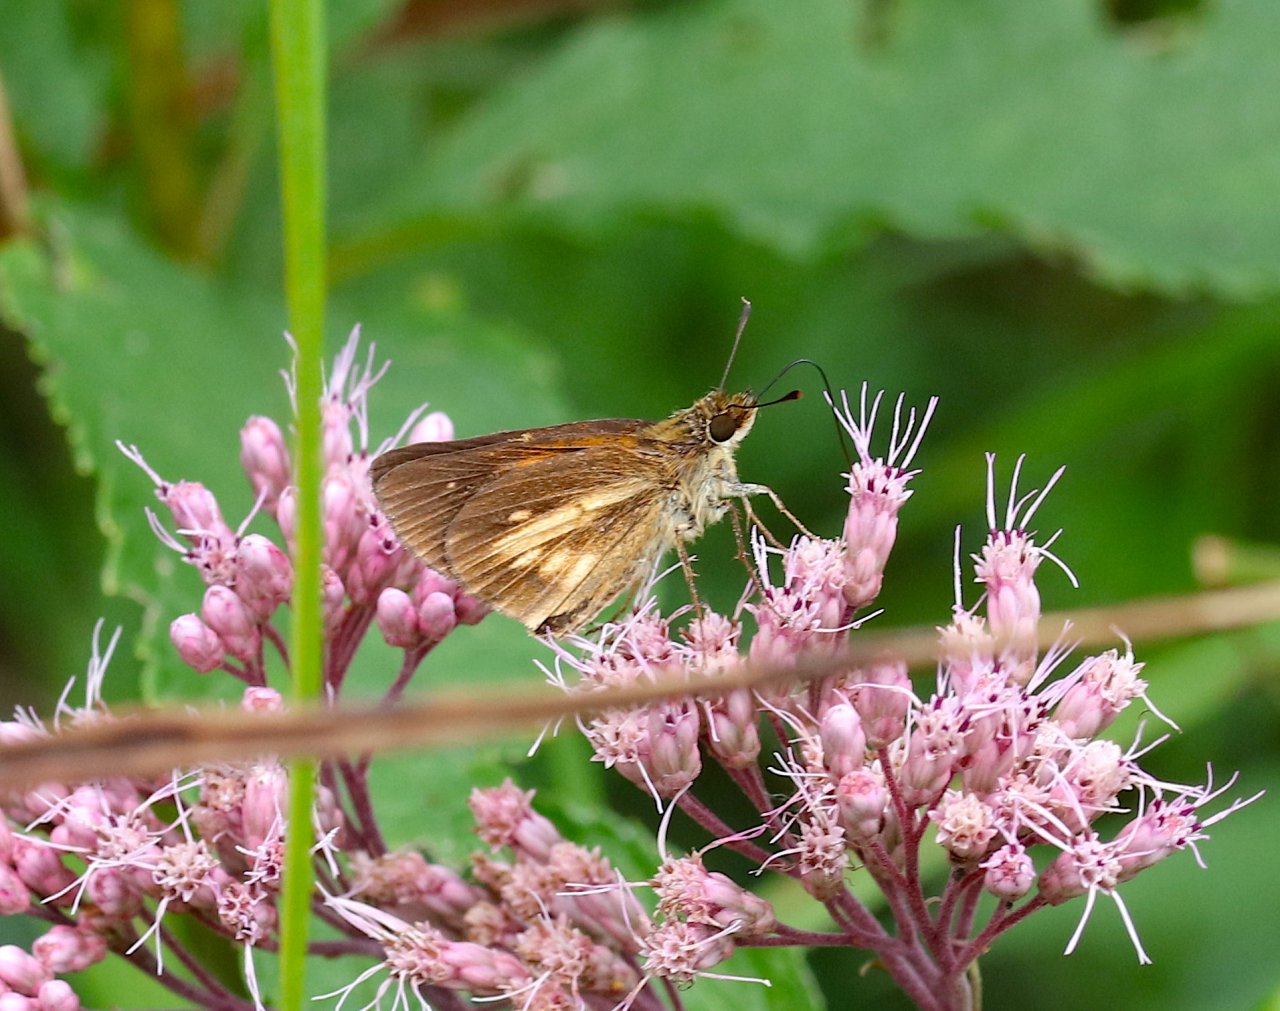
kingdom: Animalia
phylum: Arthropoda
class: Insecta
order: Lepidoptera
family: Hesperiidae
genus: Poanes
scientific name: Poanes viator
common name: Broad-winged Skipper
